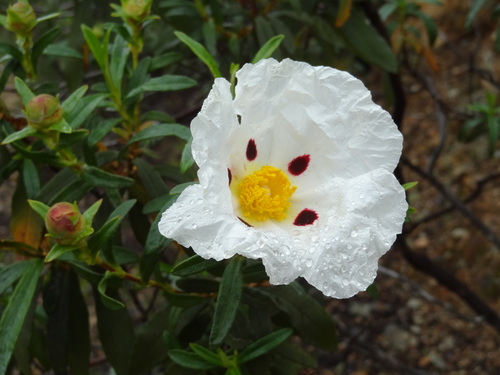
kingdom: Plantae
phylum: Tracheophyta
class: Magnoliopsida
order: Malvales
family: Cistaceae
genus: Cistus
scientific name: Cistus ladanifer
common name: Common gum cistus
